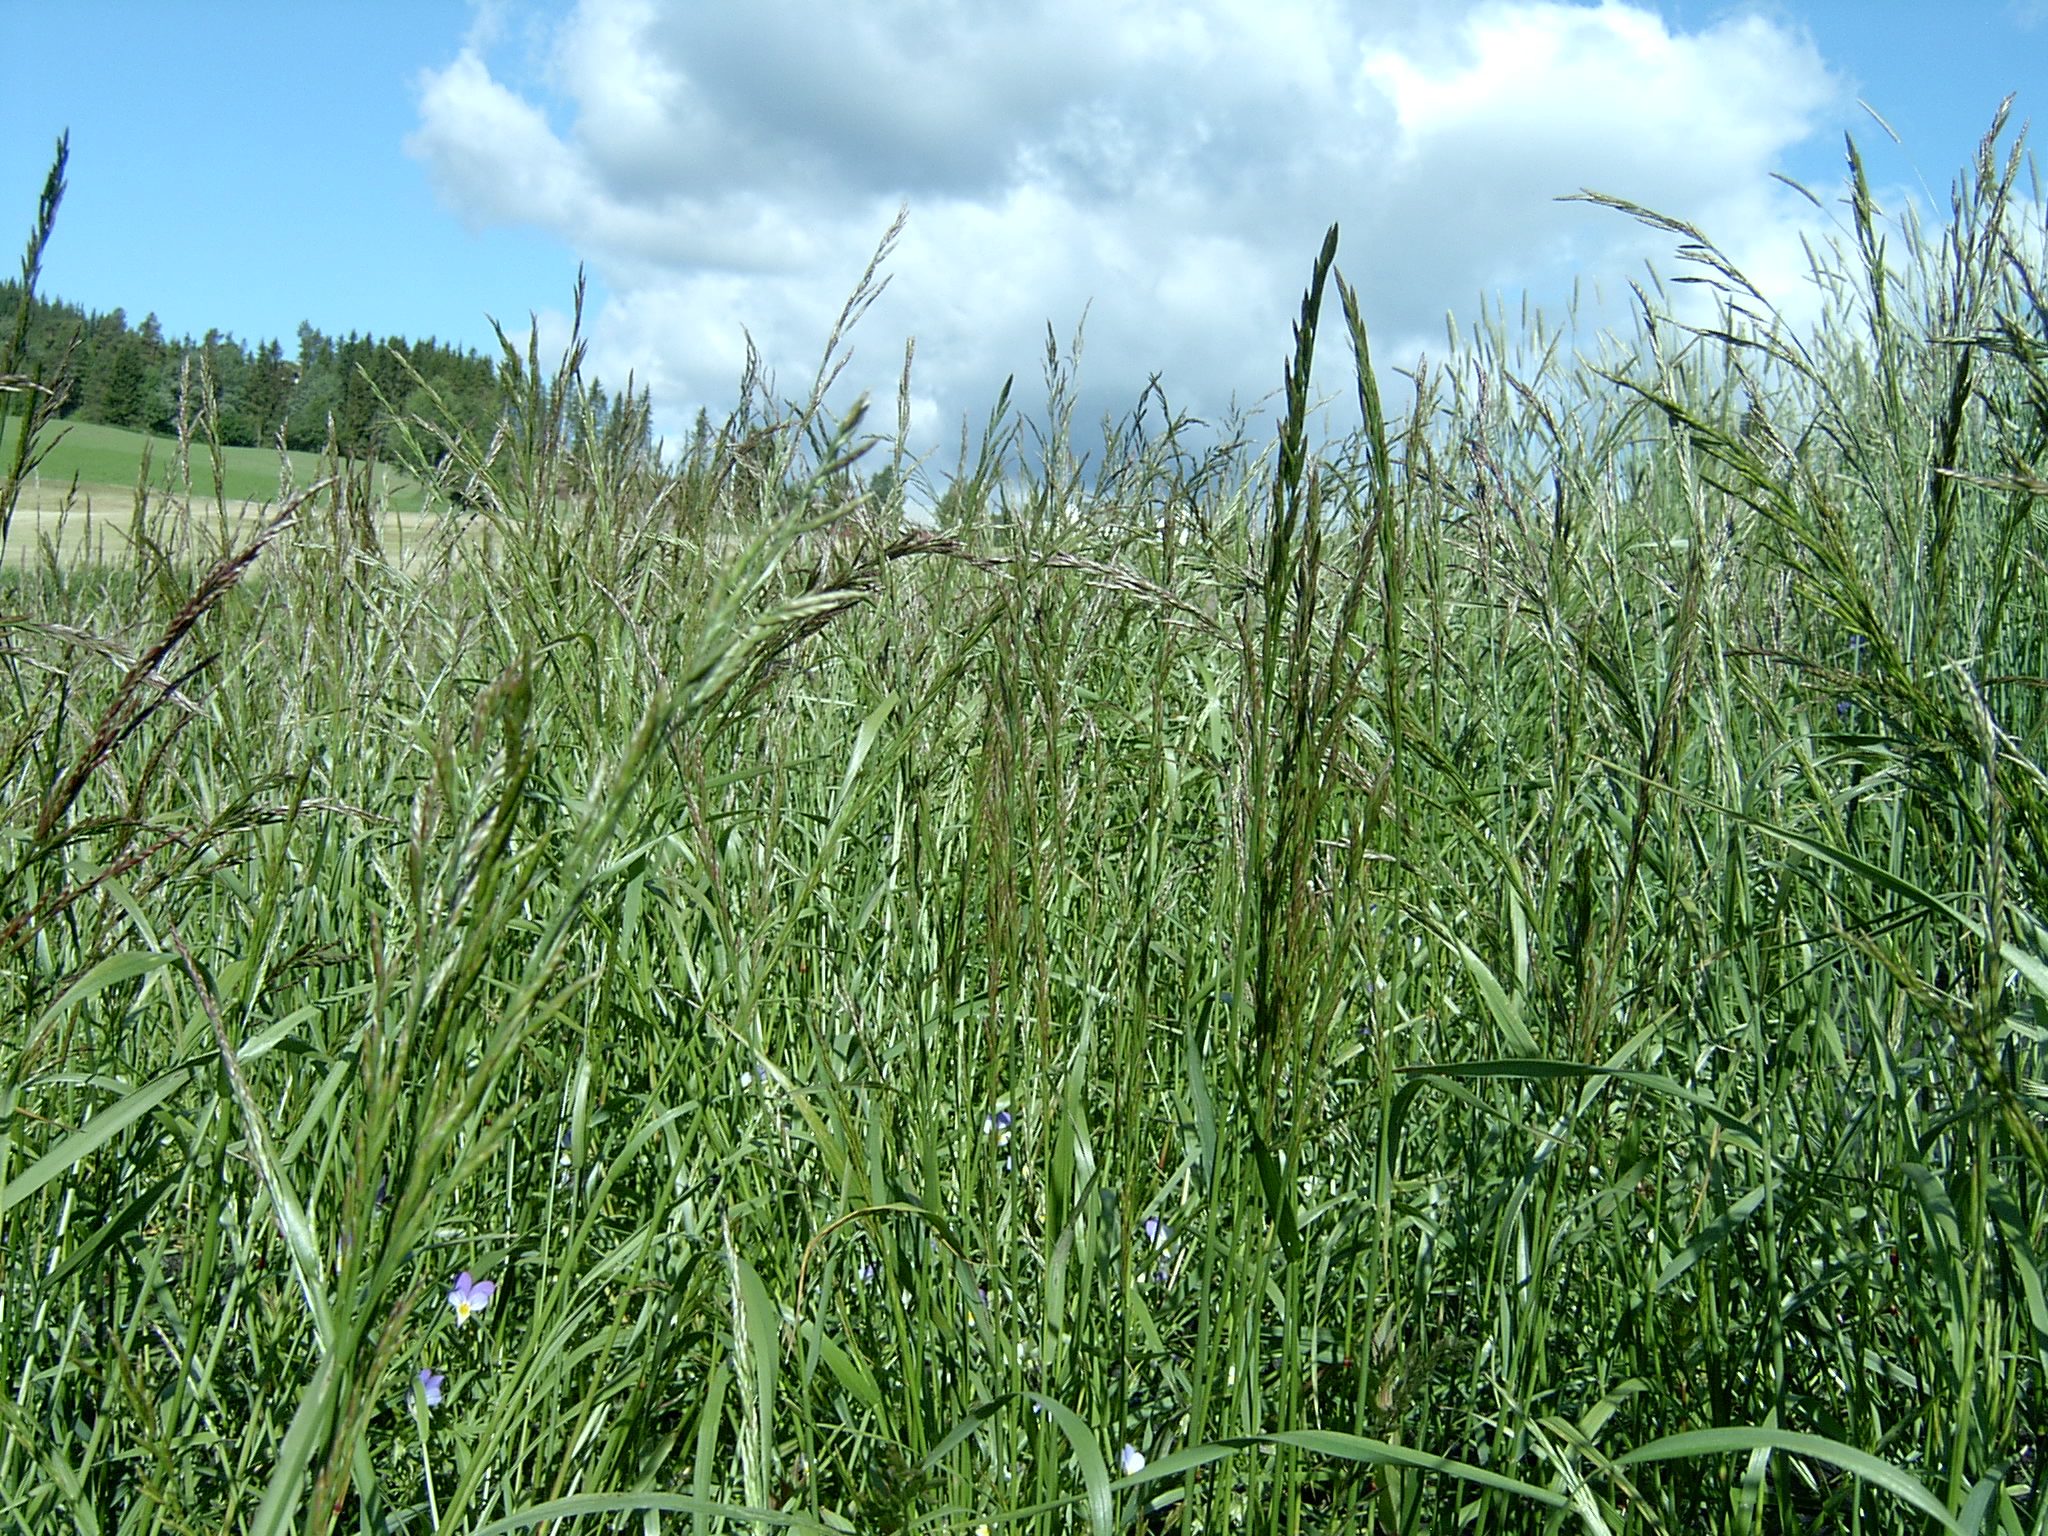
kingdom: Plantae
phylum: Tracheophyta
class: Liliopsida
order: Poales
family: Poaceae
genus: Lolium
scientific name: Lolium pratense
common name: Dover grass
